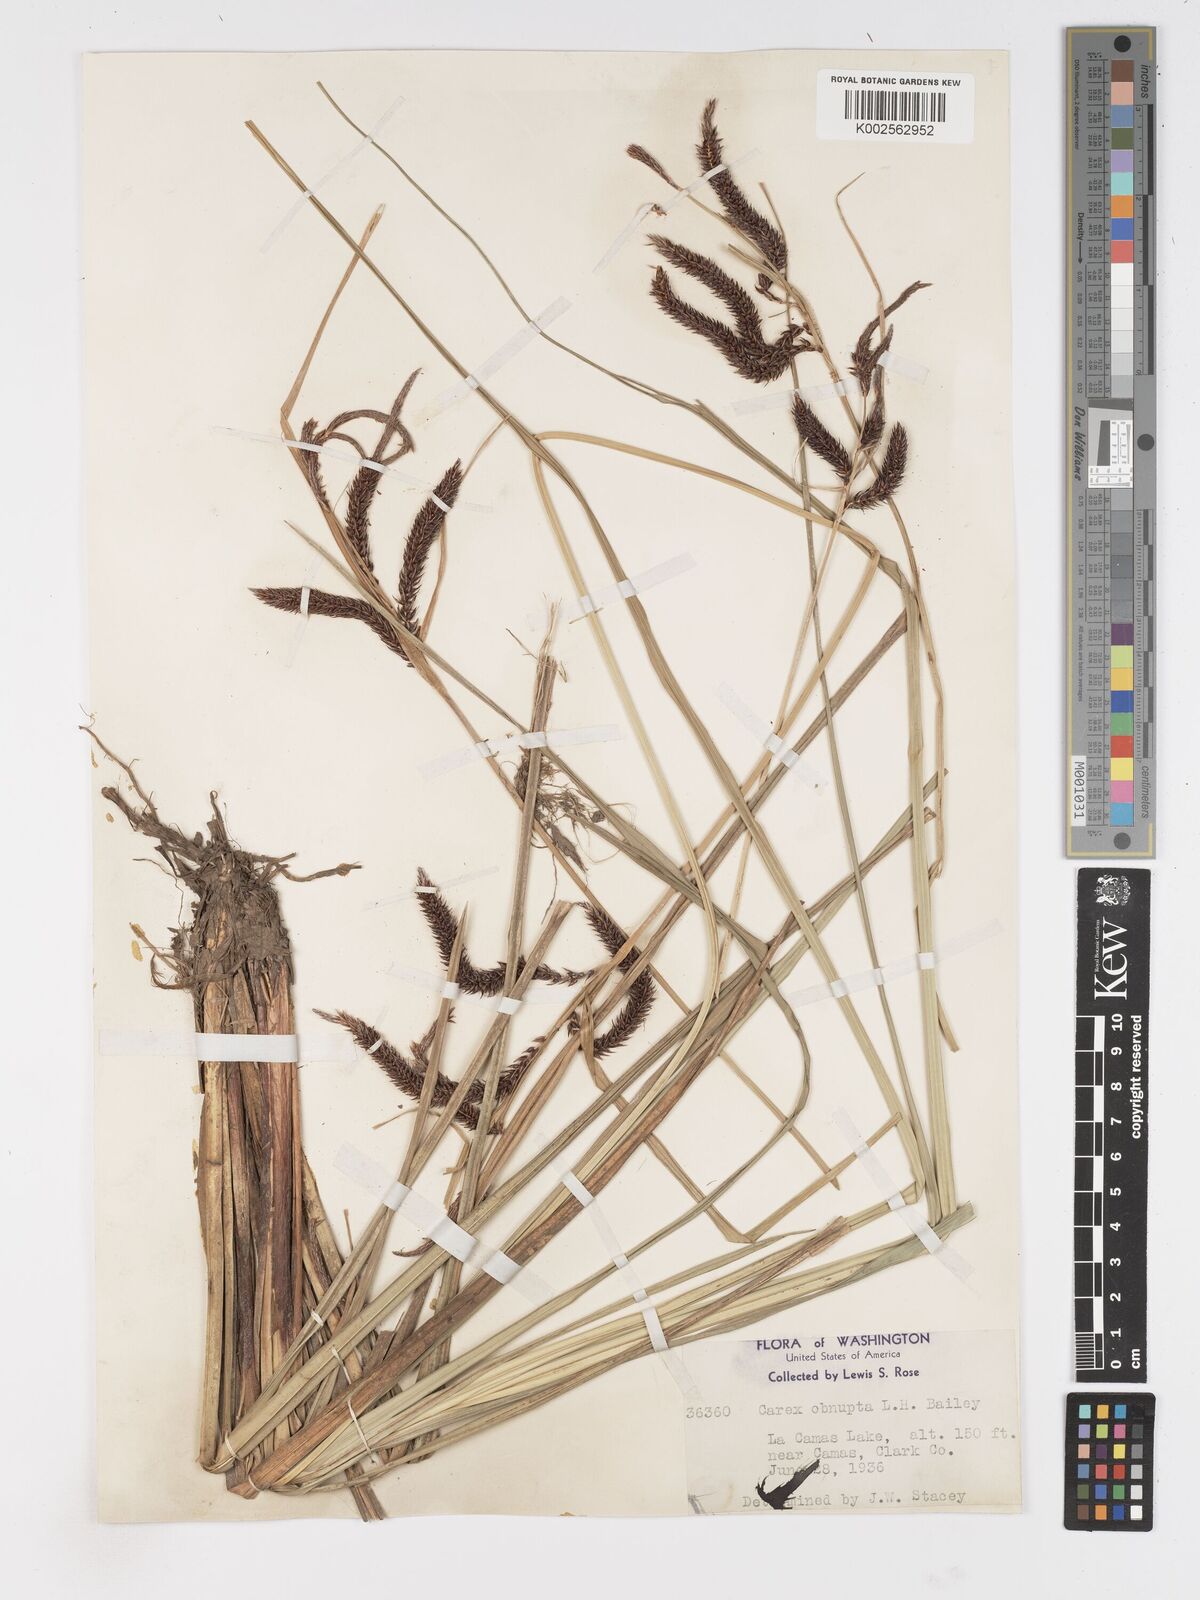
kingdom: Plantae
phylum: Tracheophyta
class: Liliopsida
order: Poales
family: Cyperaceae
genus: Carex
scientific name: Carex obnupta
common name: Slough sedge
